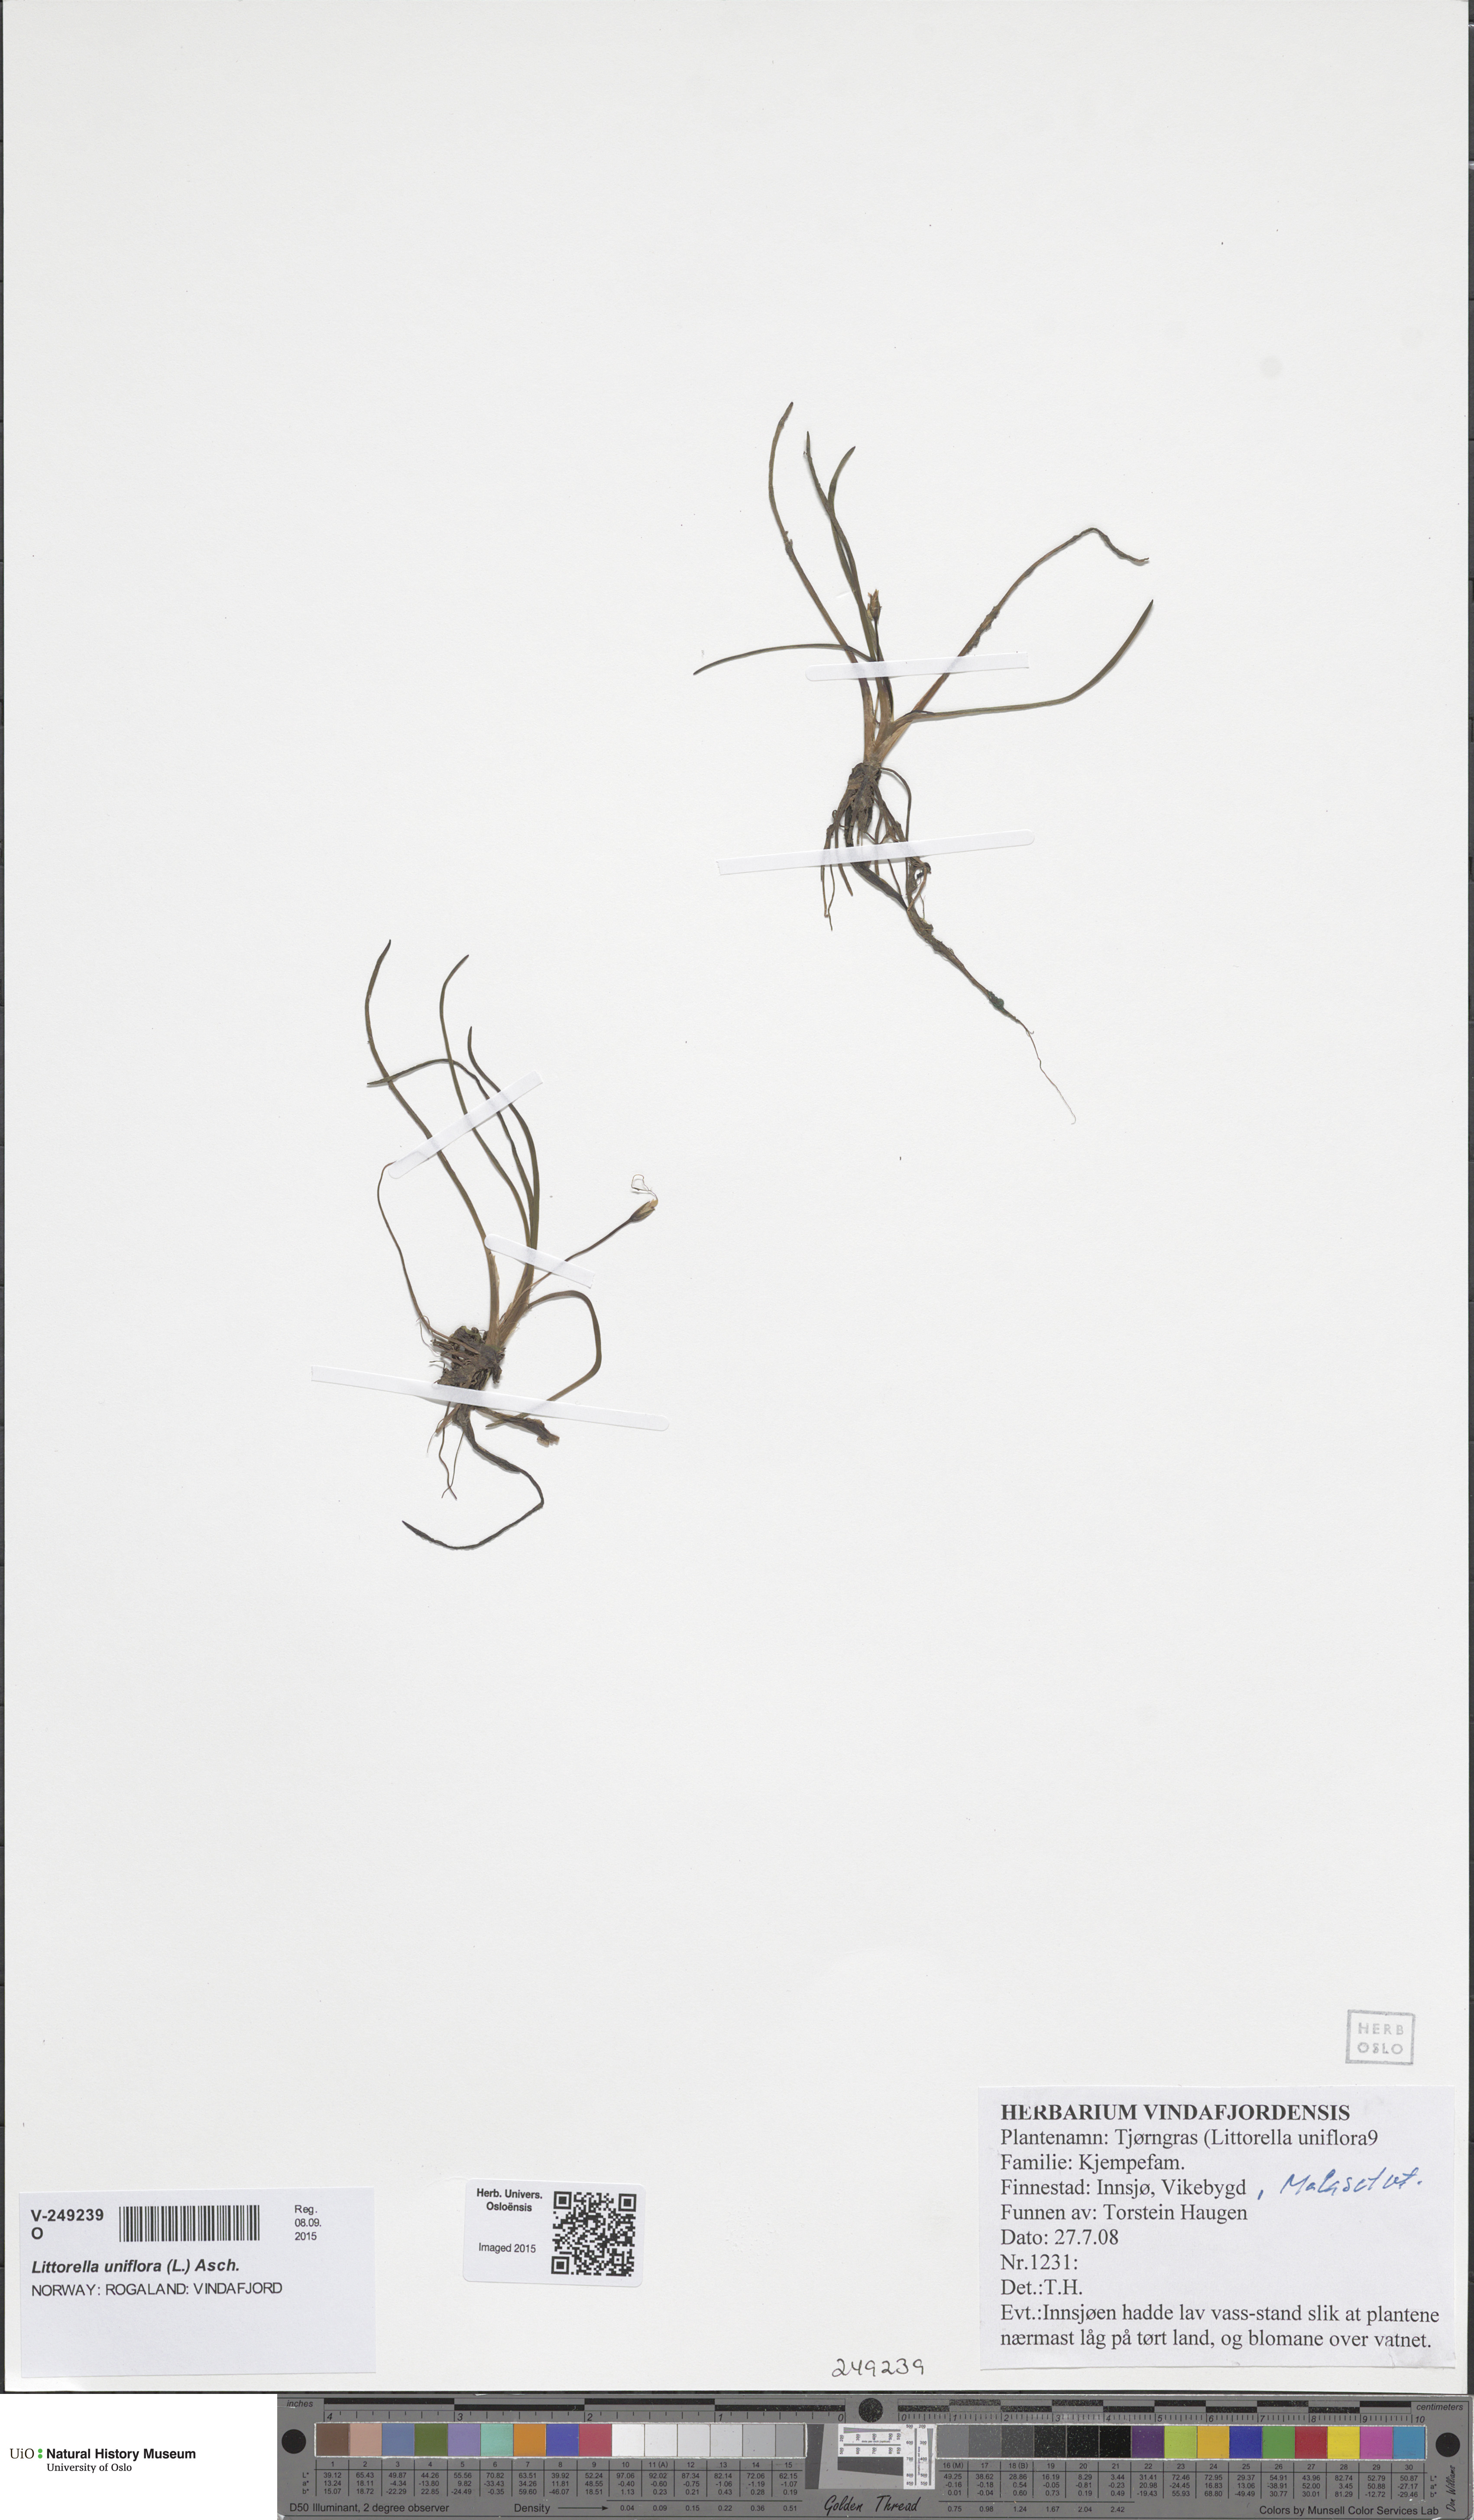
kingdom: Plantae
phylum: Tracheophyta
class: Magnoliopsida
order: Lamiales
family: Plantaginaceae
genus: Littorella
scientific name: Littorella uniflora
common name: Shoreweed
